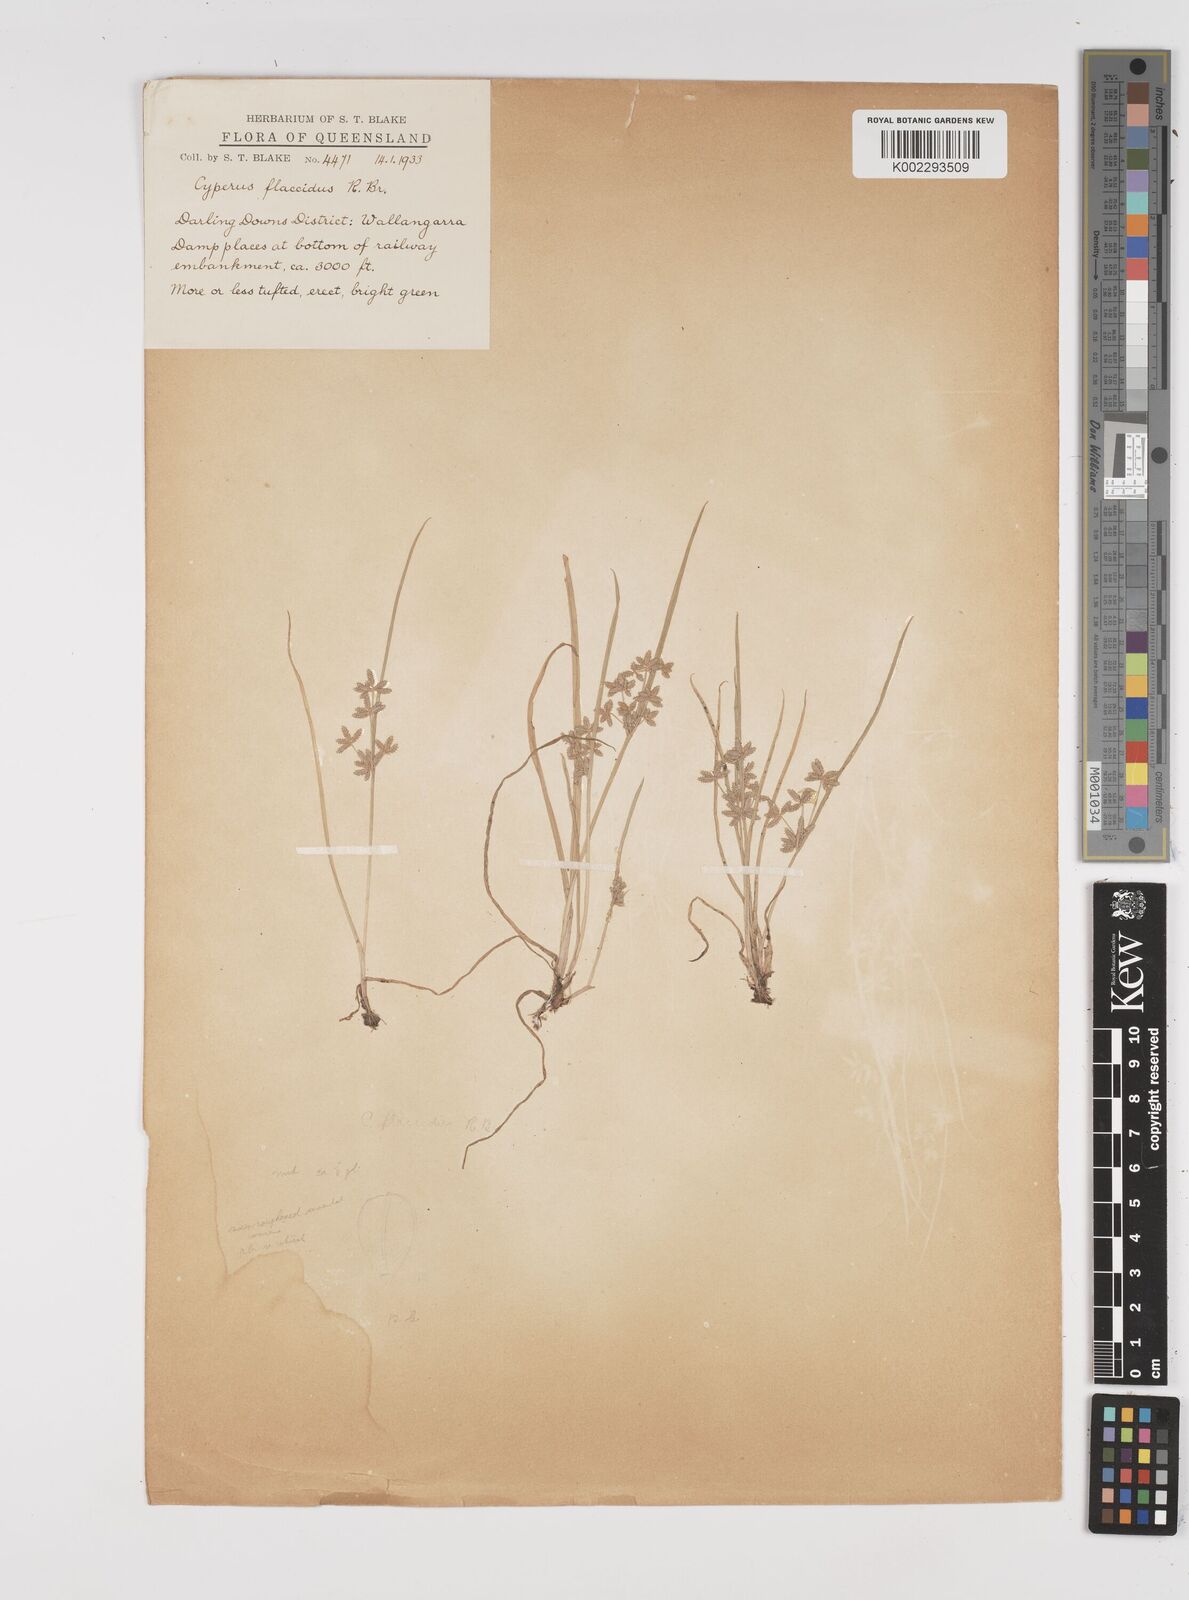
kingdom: Plantae
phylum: Tracheophyta
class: Liliopsida
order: Poales
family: Cyperaceae
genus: Cyperus
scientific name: Cyperus flaccidus
